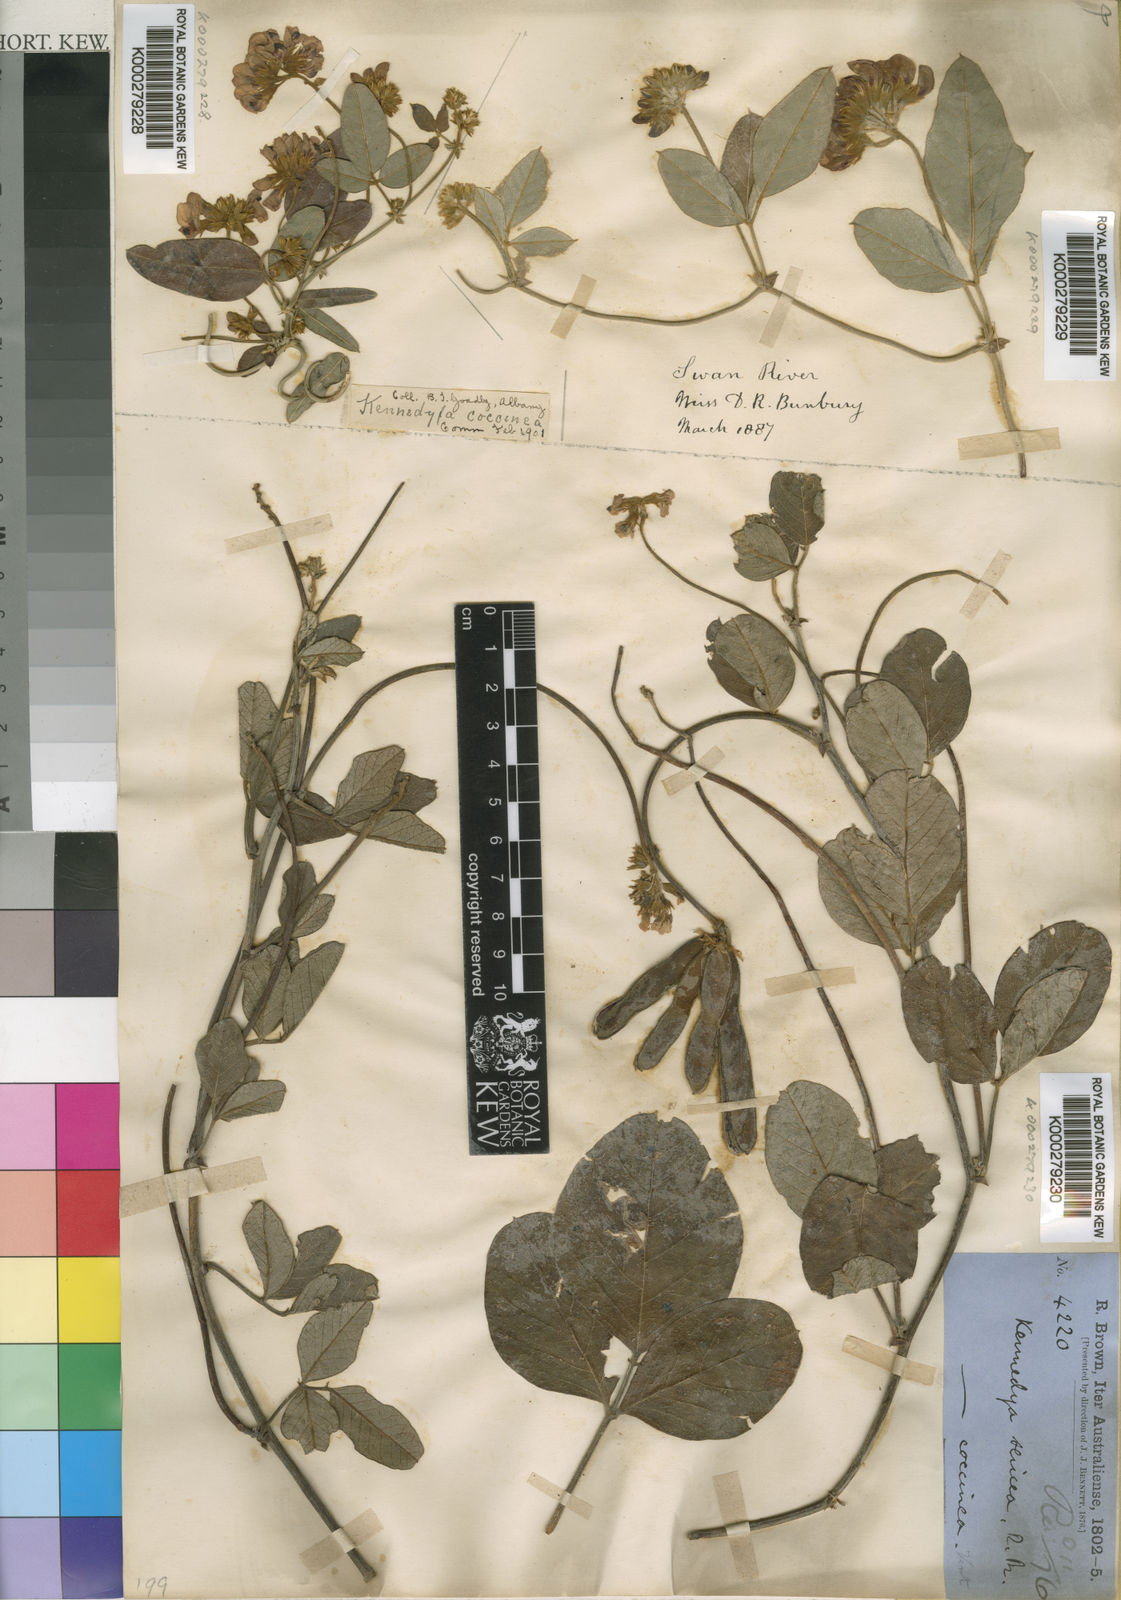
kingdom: Plantae
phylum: Tracheophyta
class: Magnoliopsida
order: Fabales
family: Fabaceae
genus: Kennedia
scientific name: Kennedia coccinea
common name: Coralvine
